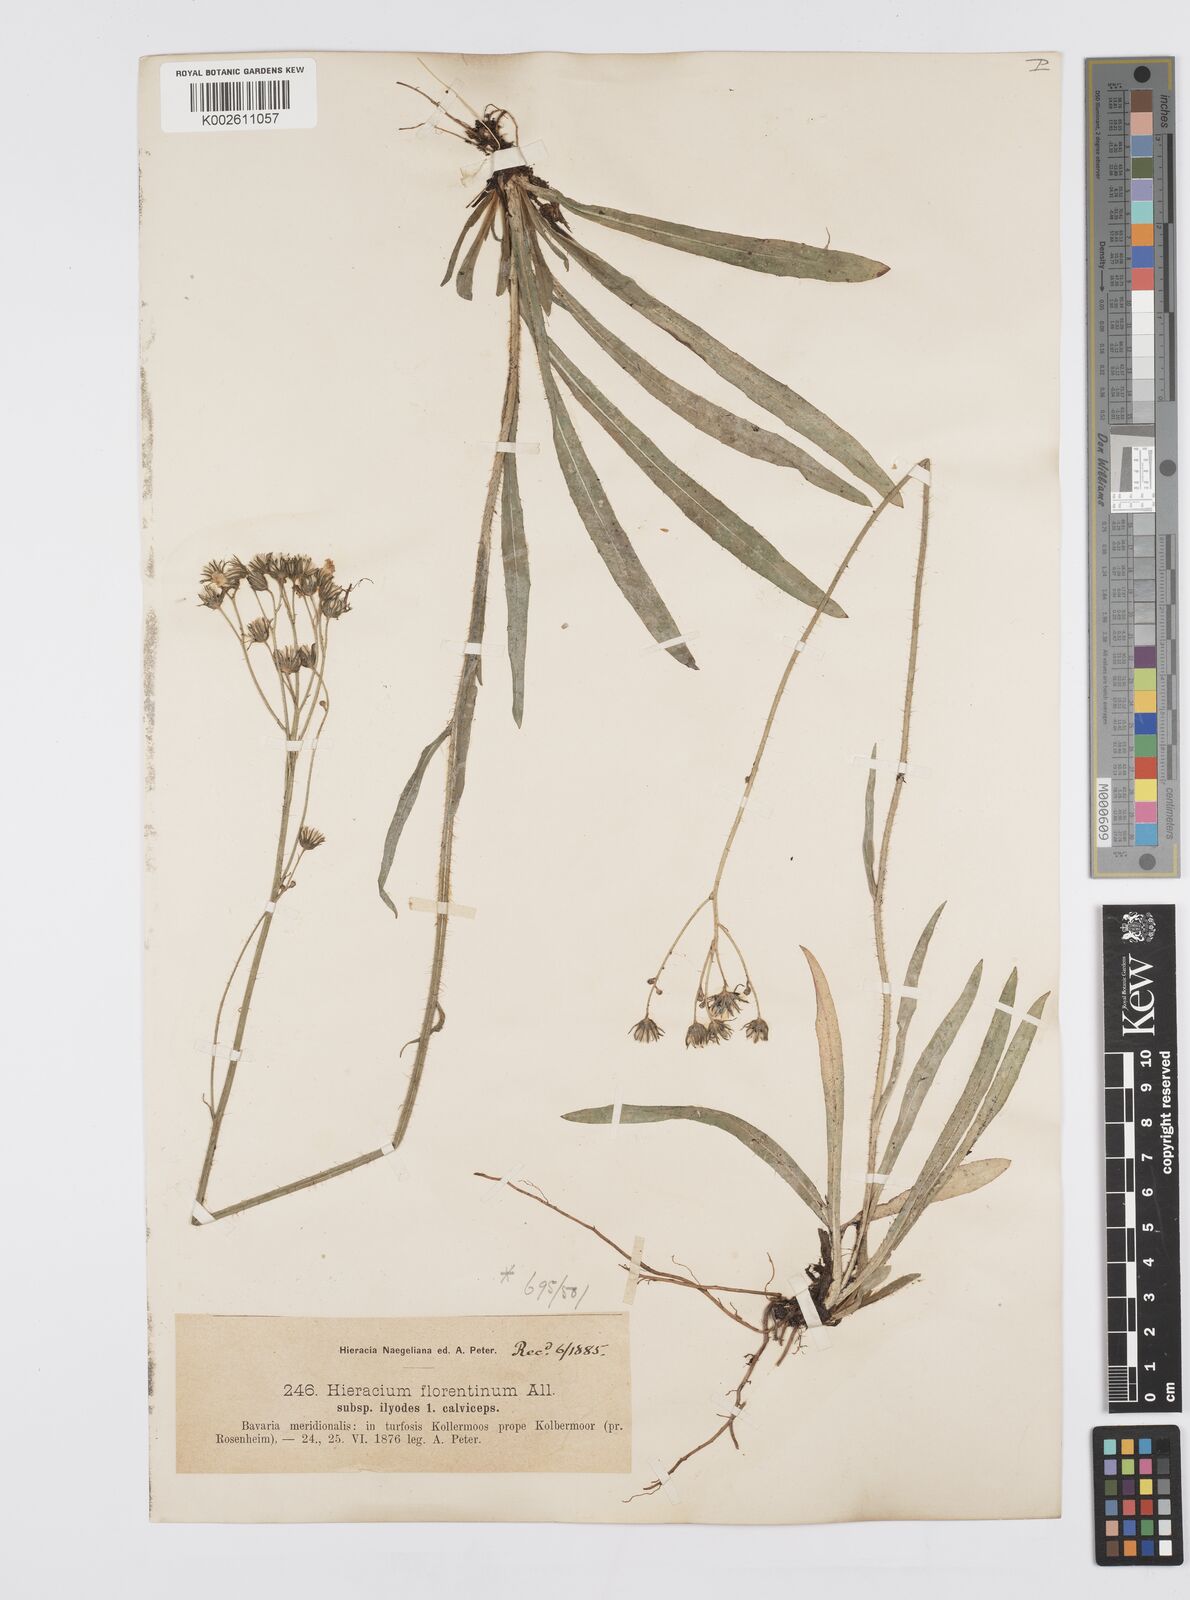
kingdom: Plantae
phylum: Tracheophyta
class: Magnoliopsida
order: Asterales
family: Asteraceae
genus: Pilosella
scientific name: Pilosella piloselloides
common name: Glaucous king-devil
